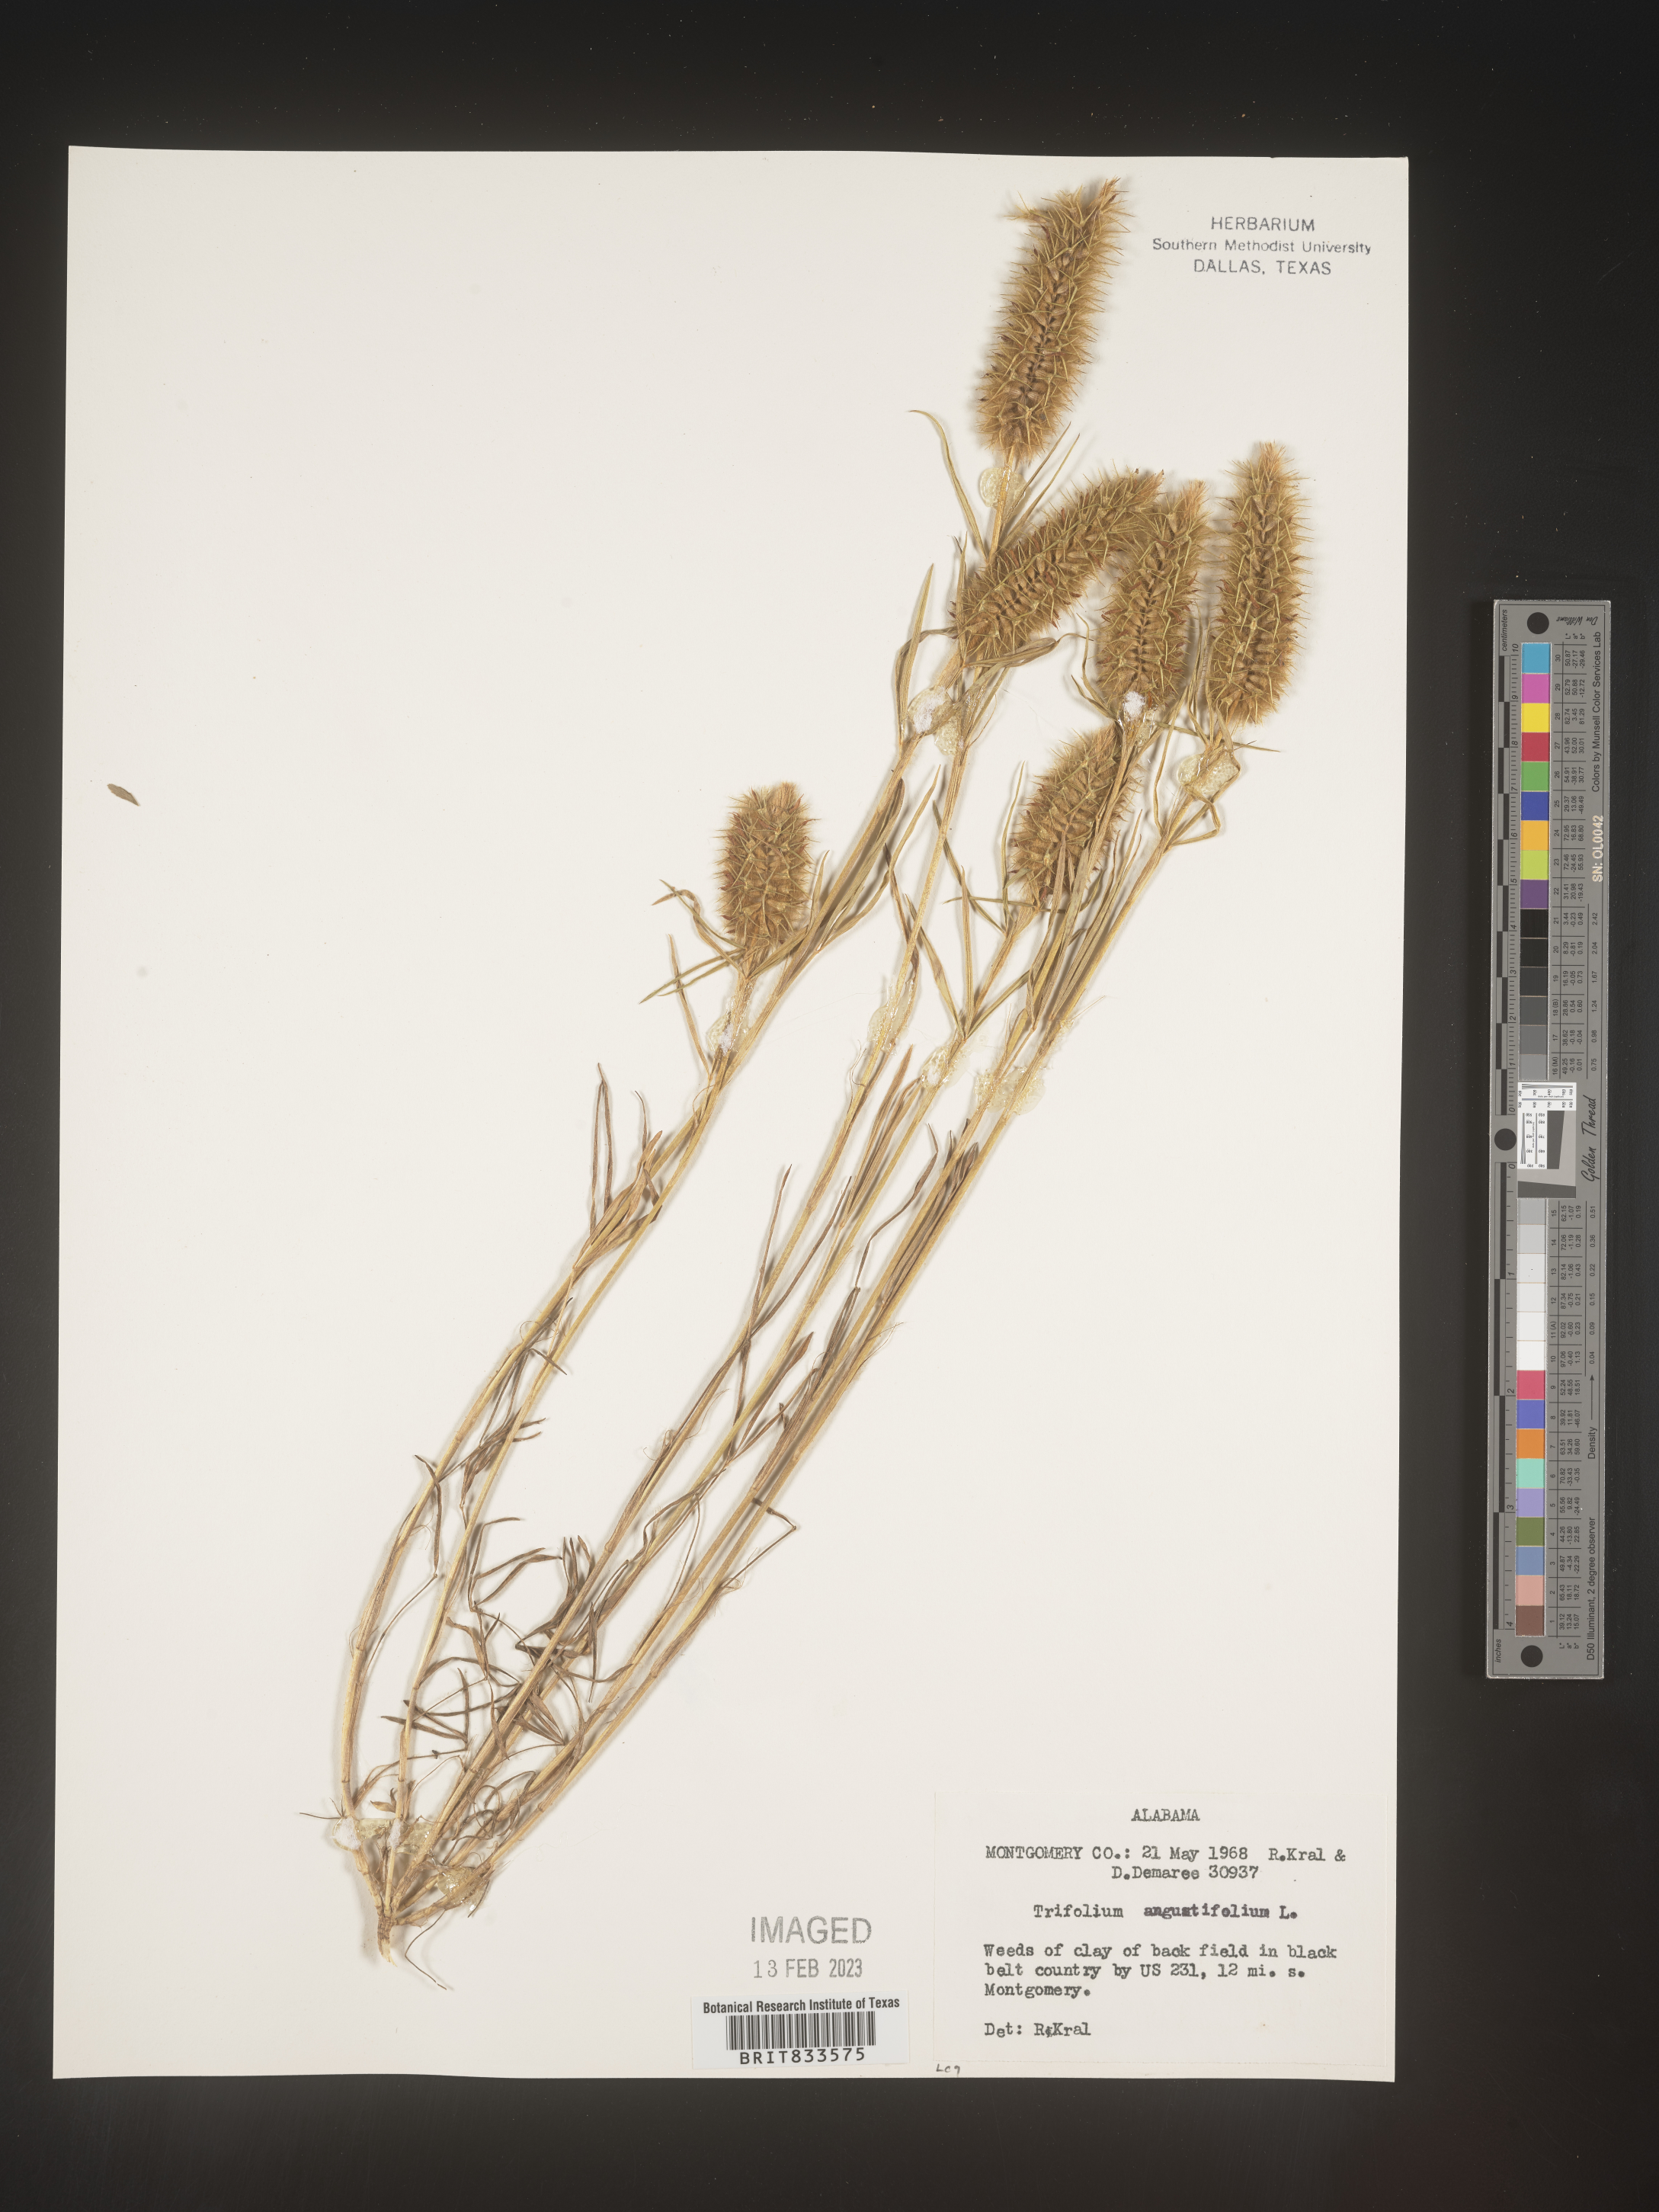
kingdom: Plantae
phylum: Tracheophyta
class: Magnoliopsida
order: Fabales
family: Fabaceae
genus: Trifolium
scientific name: Trifolium
